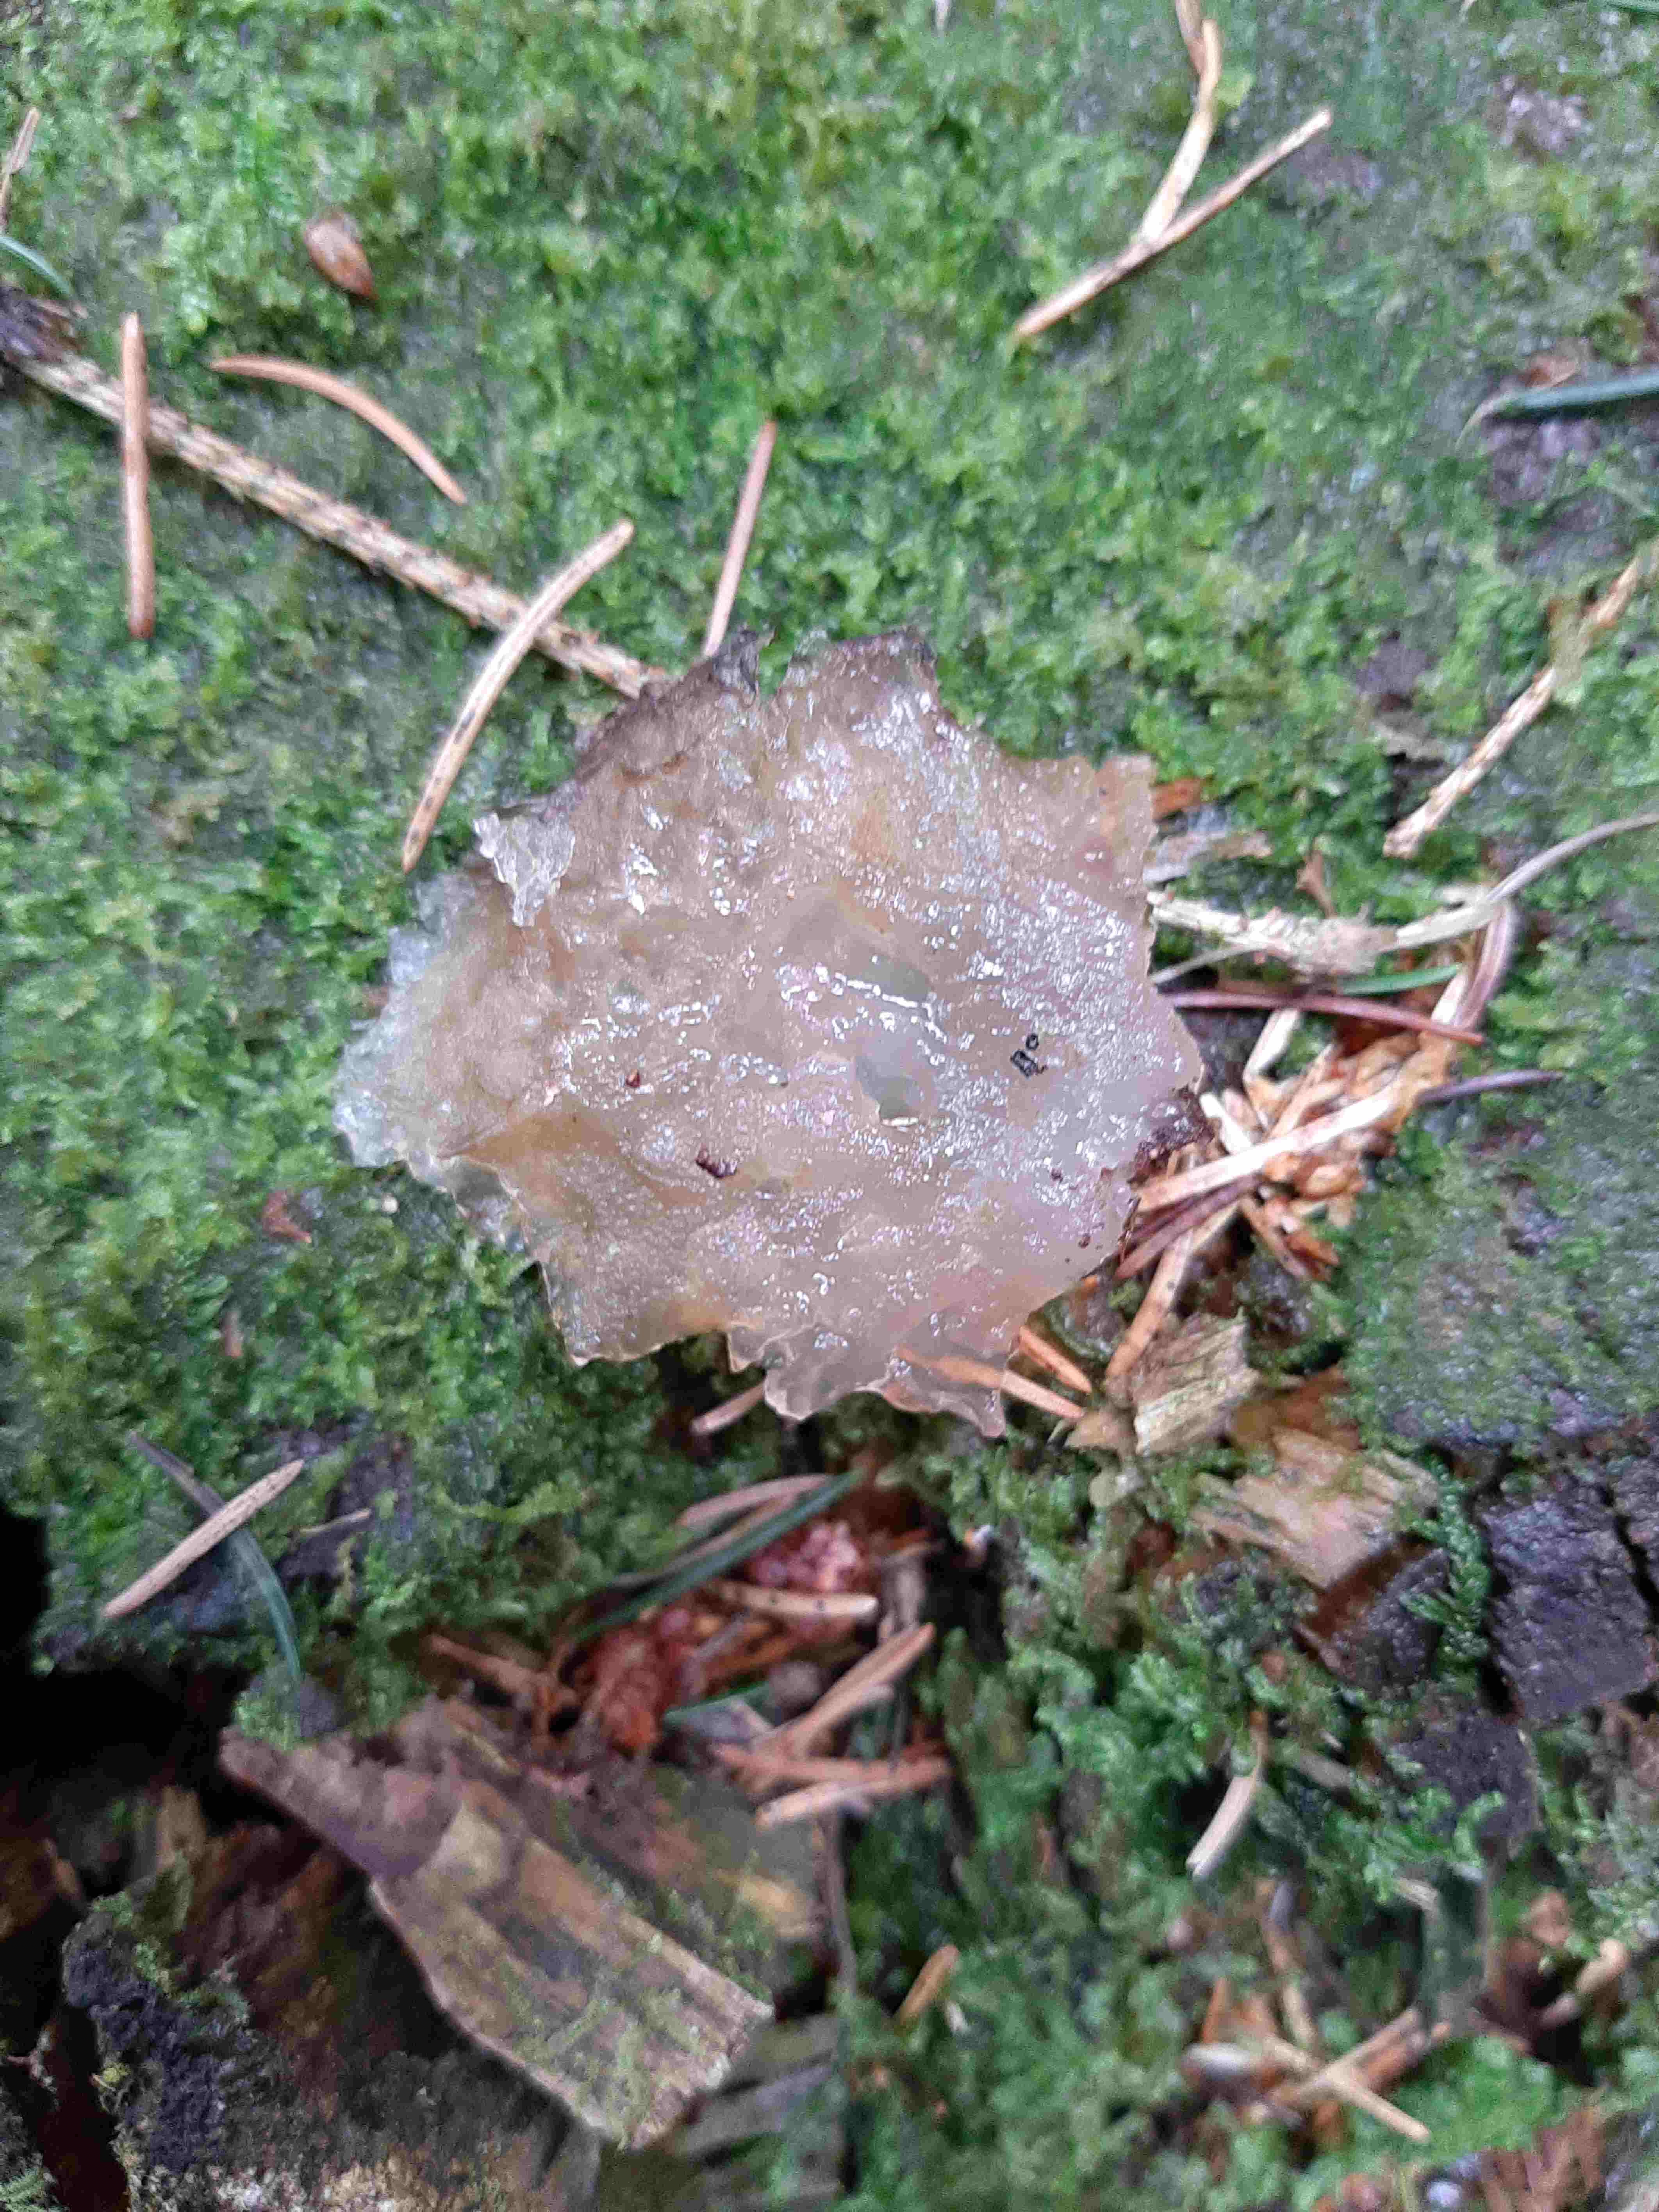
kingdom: Fungi
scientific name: Fungi
